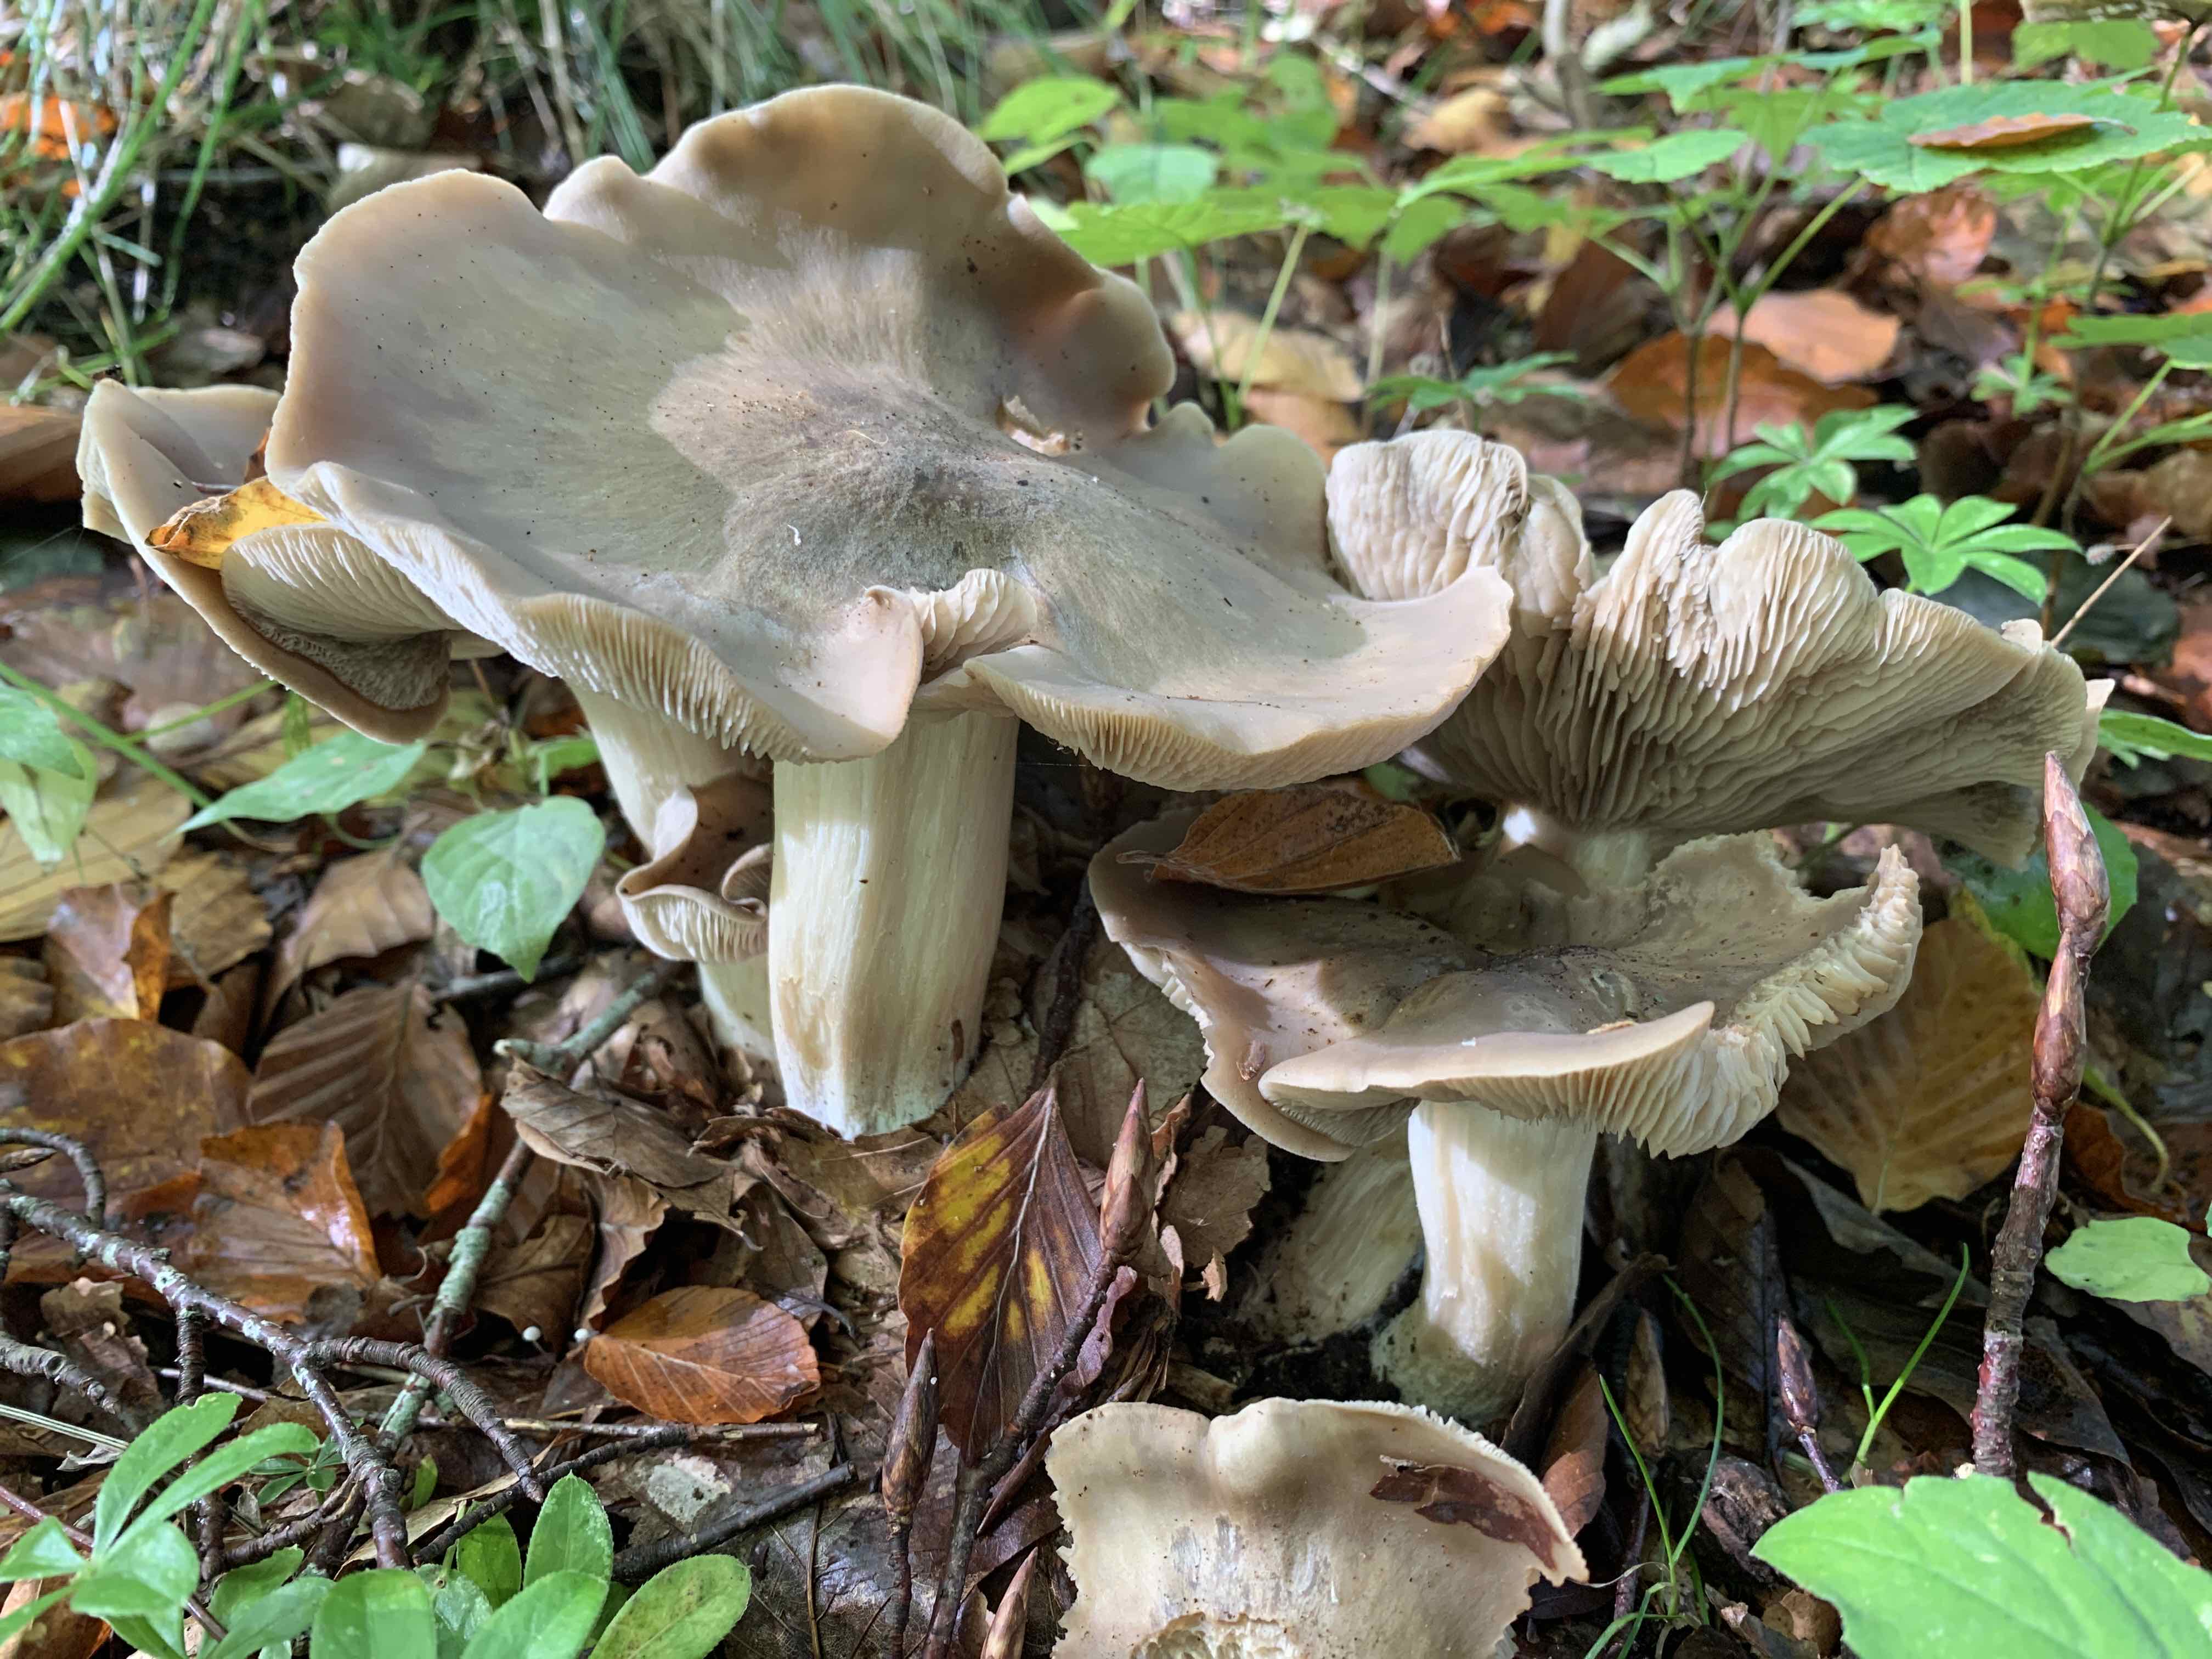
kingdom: Fungi
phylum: Basidiomycota
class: Agaricomycetes
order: Agaricales
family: Lyophyllaceae
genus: Lyophyllum
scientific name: Lyophyllum decastes
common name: røggrå gråblad
